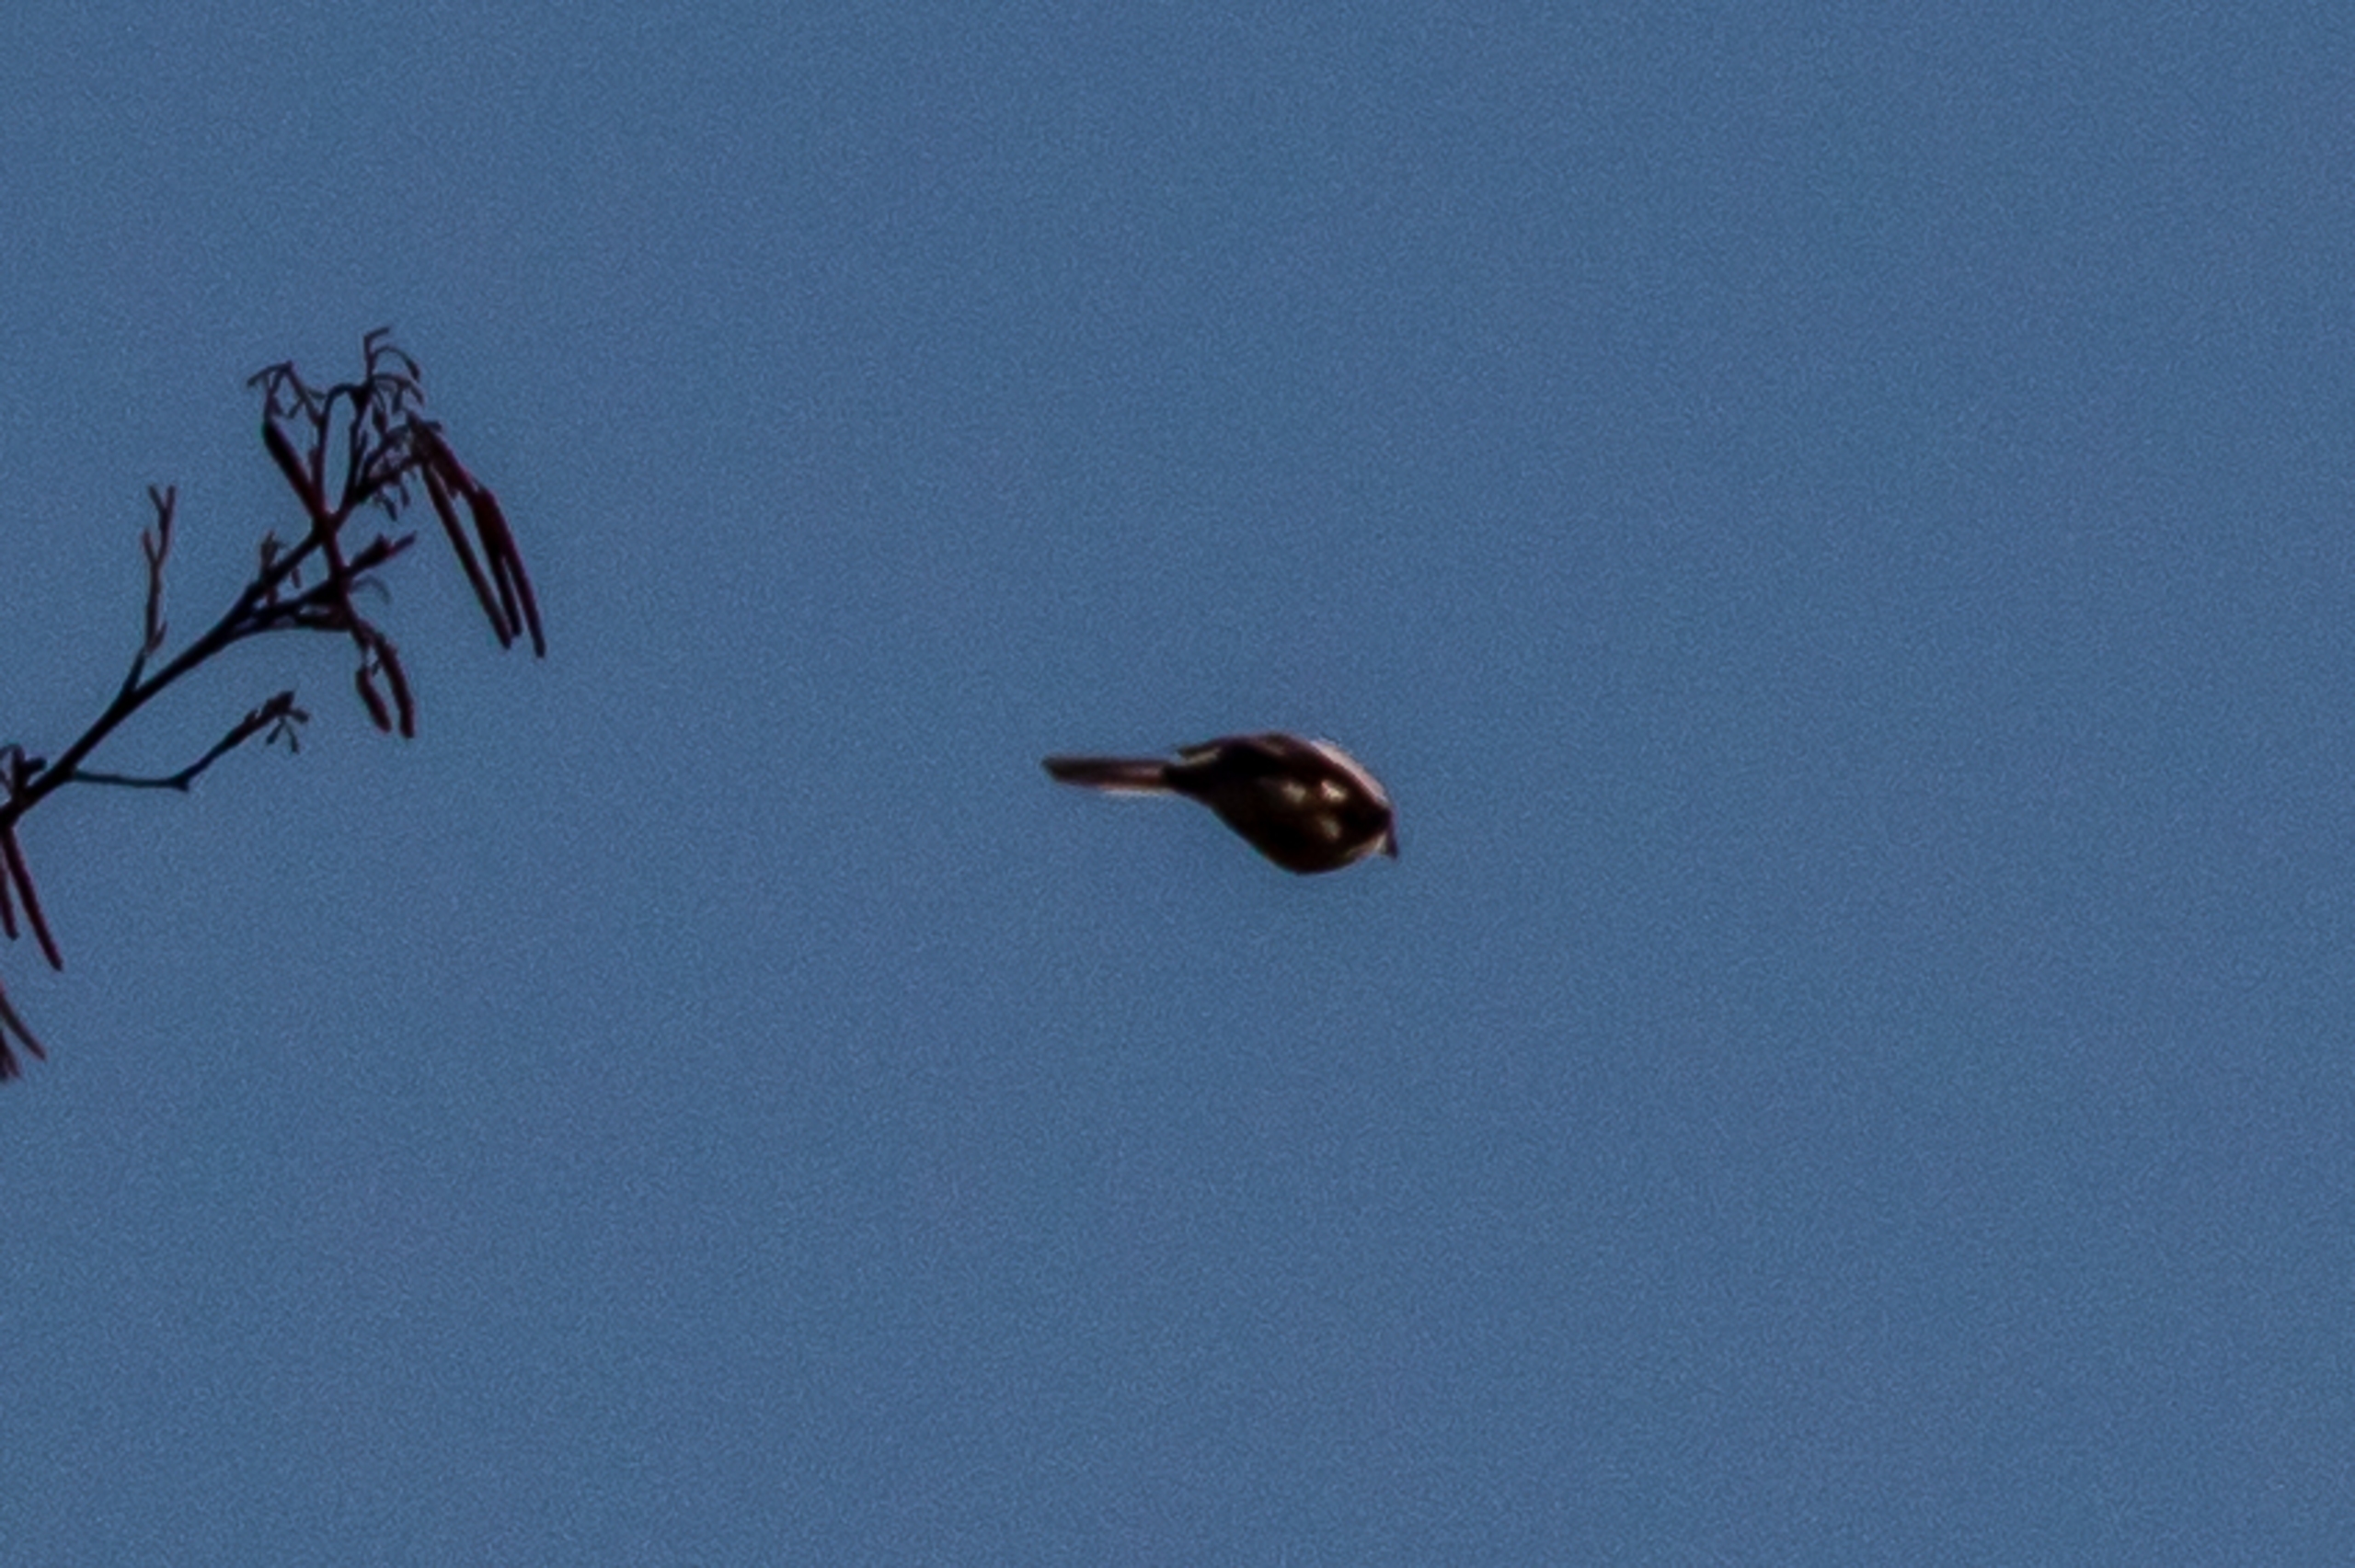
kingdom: Animalia
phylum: Chordata
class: Aves
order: Passeriformes
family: Laniidae
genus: Lanius
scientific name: Lanius excubitor
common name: Stor tornskade
